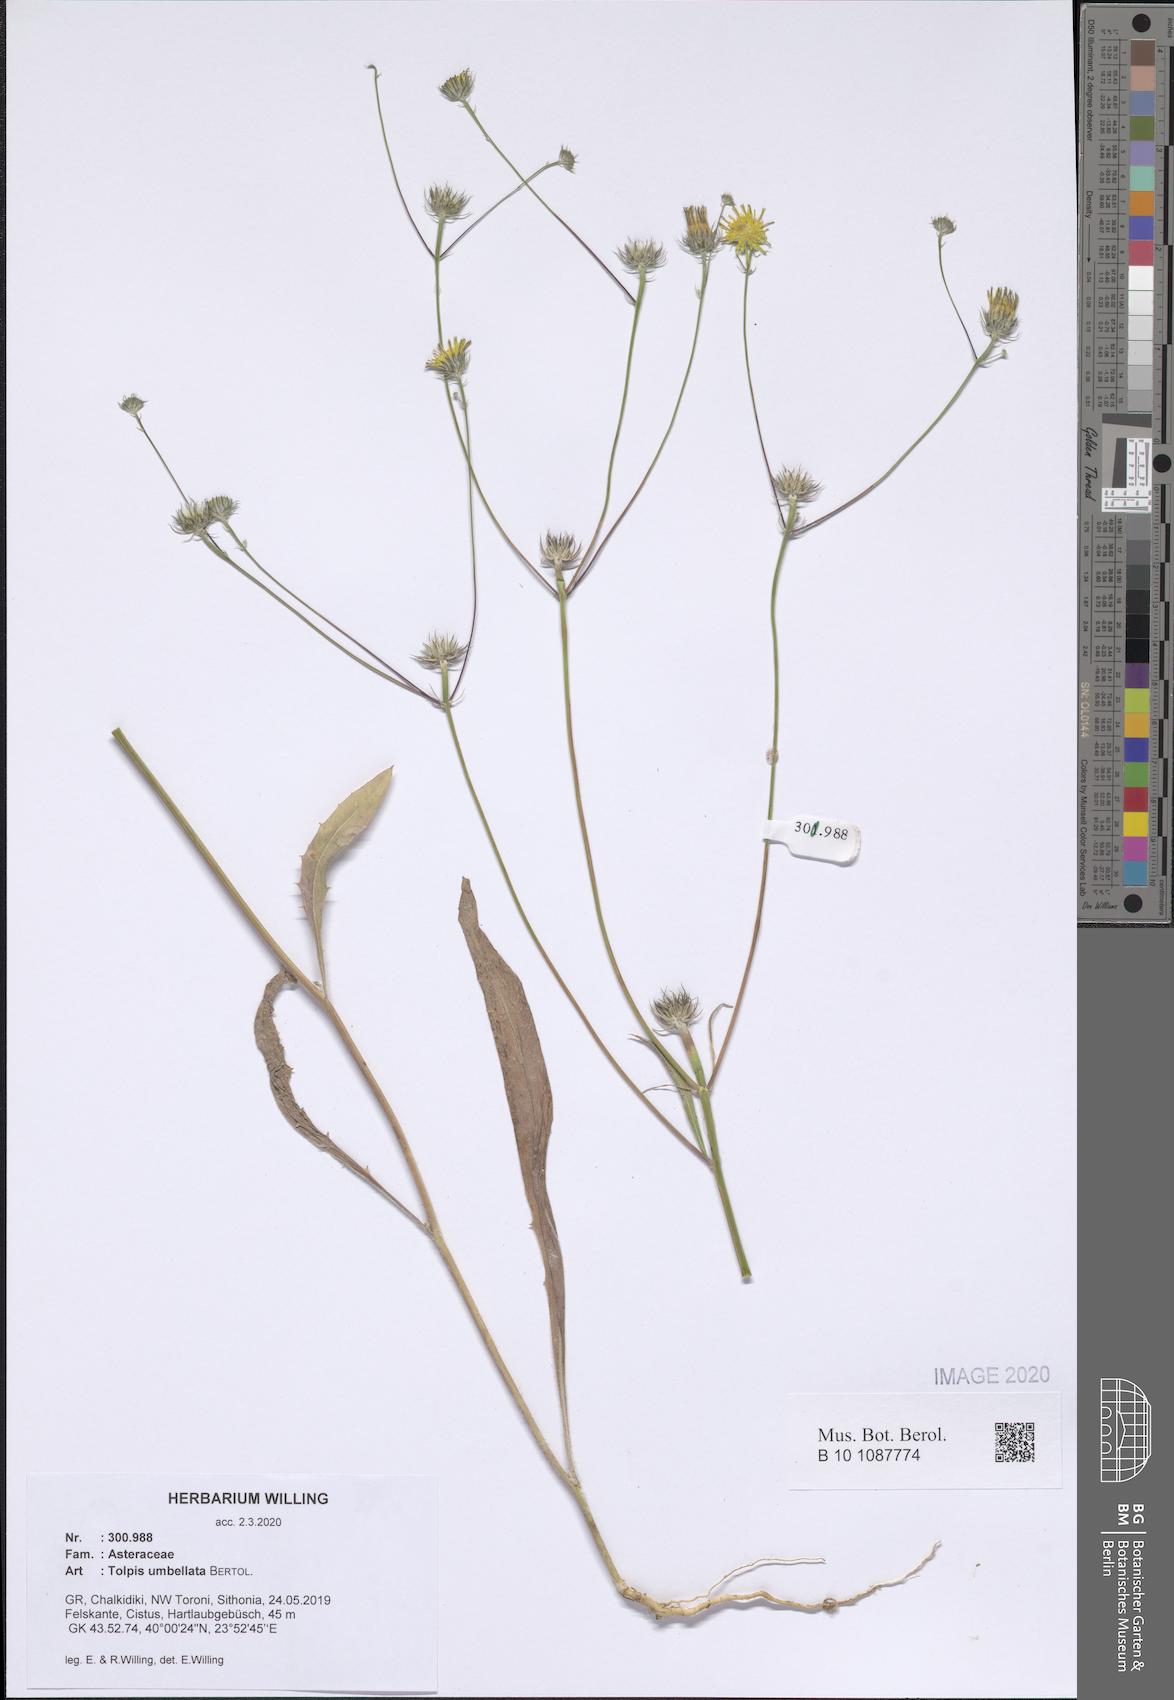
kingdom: Plantae
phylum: Tracheophyta
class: Magnoliopsida
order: Asterales
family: Asteraceae
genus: Tolpis
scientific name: Tolpis umbellata
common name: Yellow hawkweed
